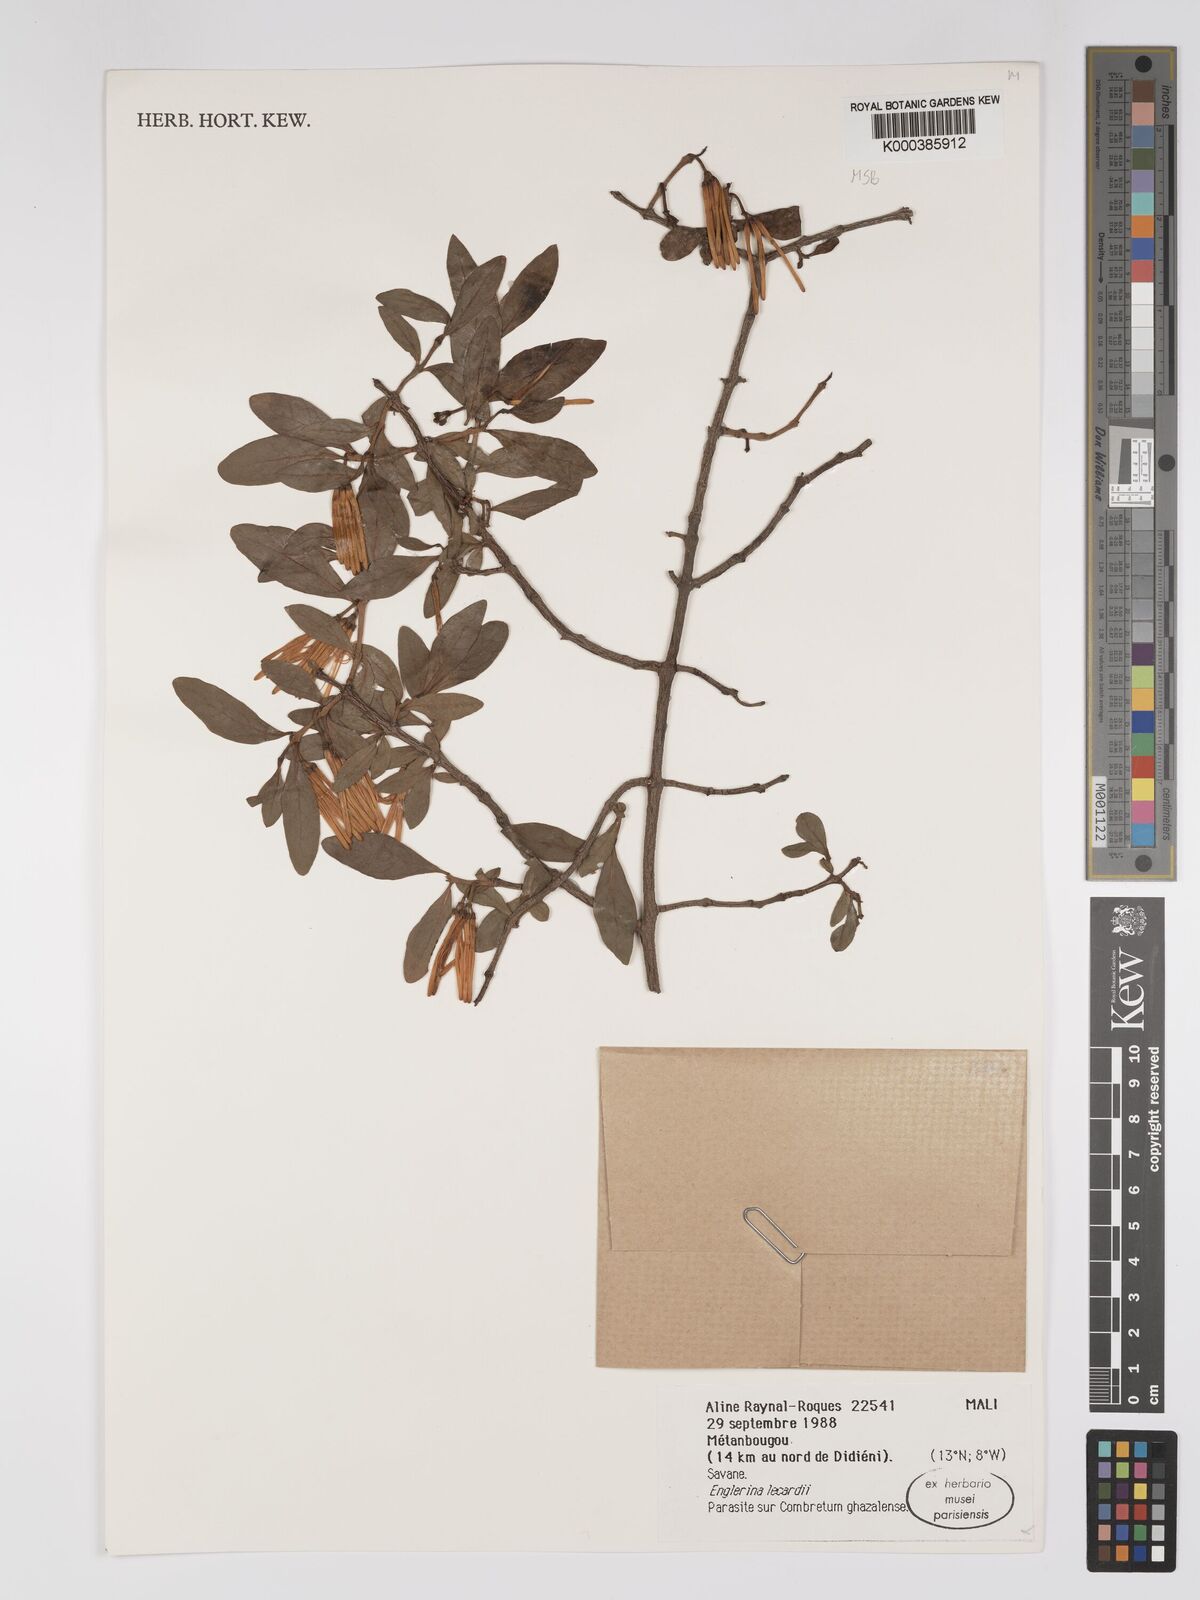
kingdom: Plantae
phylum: Tracheophyta
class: Magnoliopsida
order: Santalales
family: Loranthaceae
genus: Englerina
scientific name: Englerina lecardii
